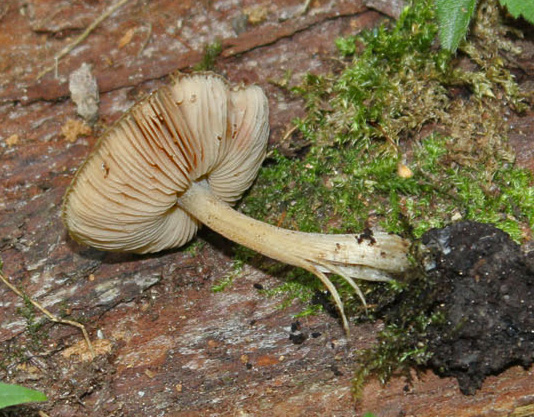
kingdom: Fungi
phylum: Basidiomycota
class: Agaricomycetes
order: Agaricales
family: Pluteaceae
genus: Pluteus
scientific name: Pluteus
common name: gråstokket skærmhat
